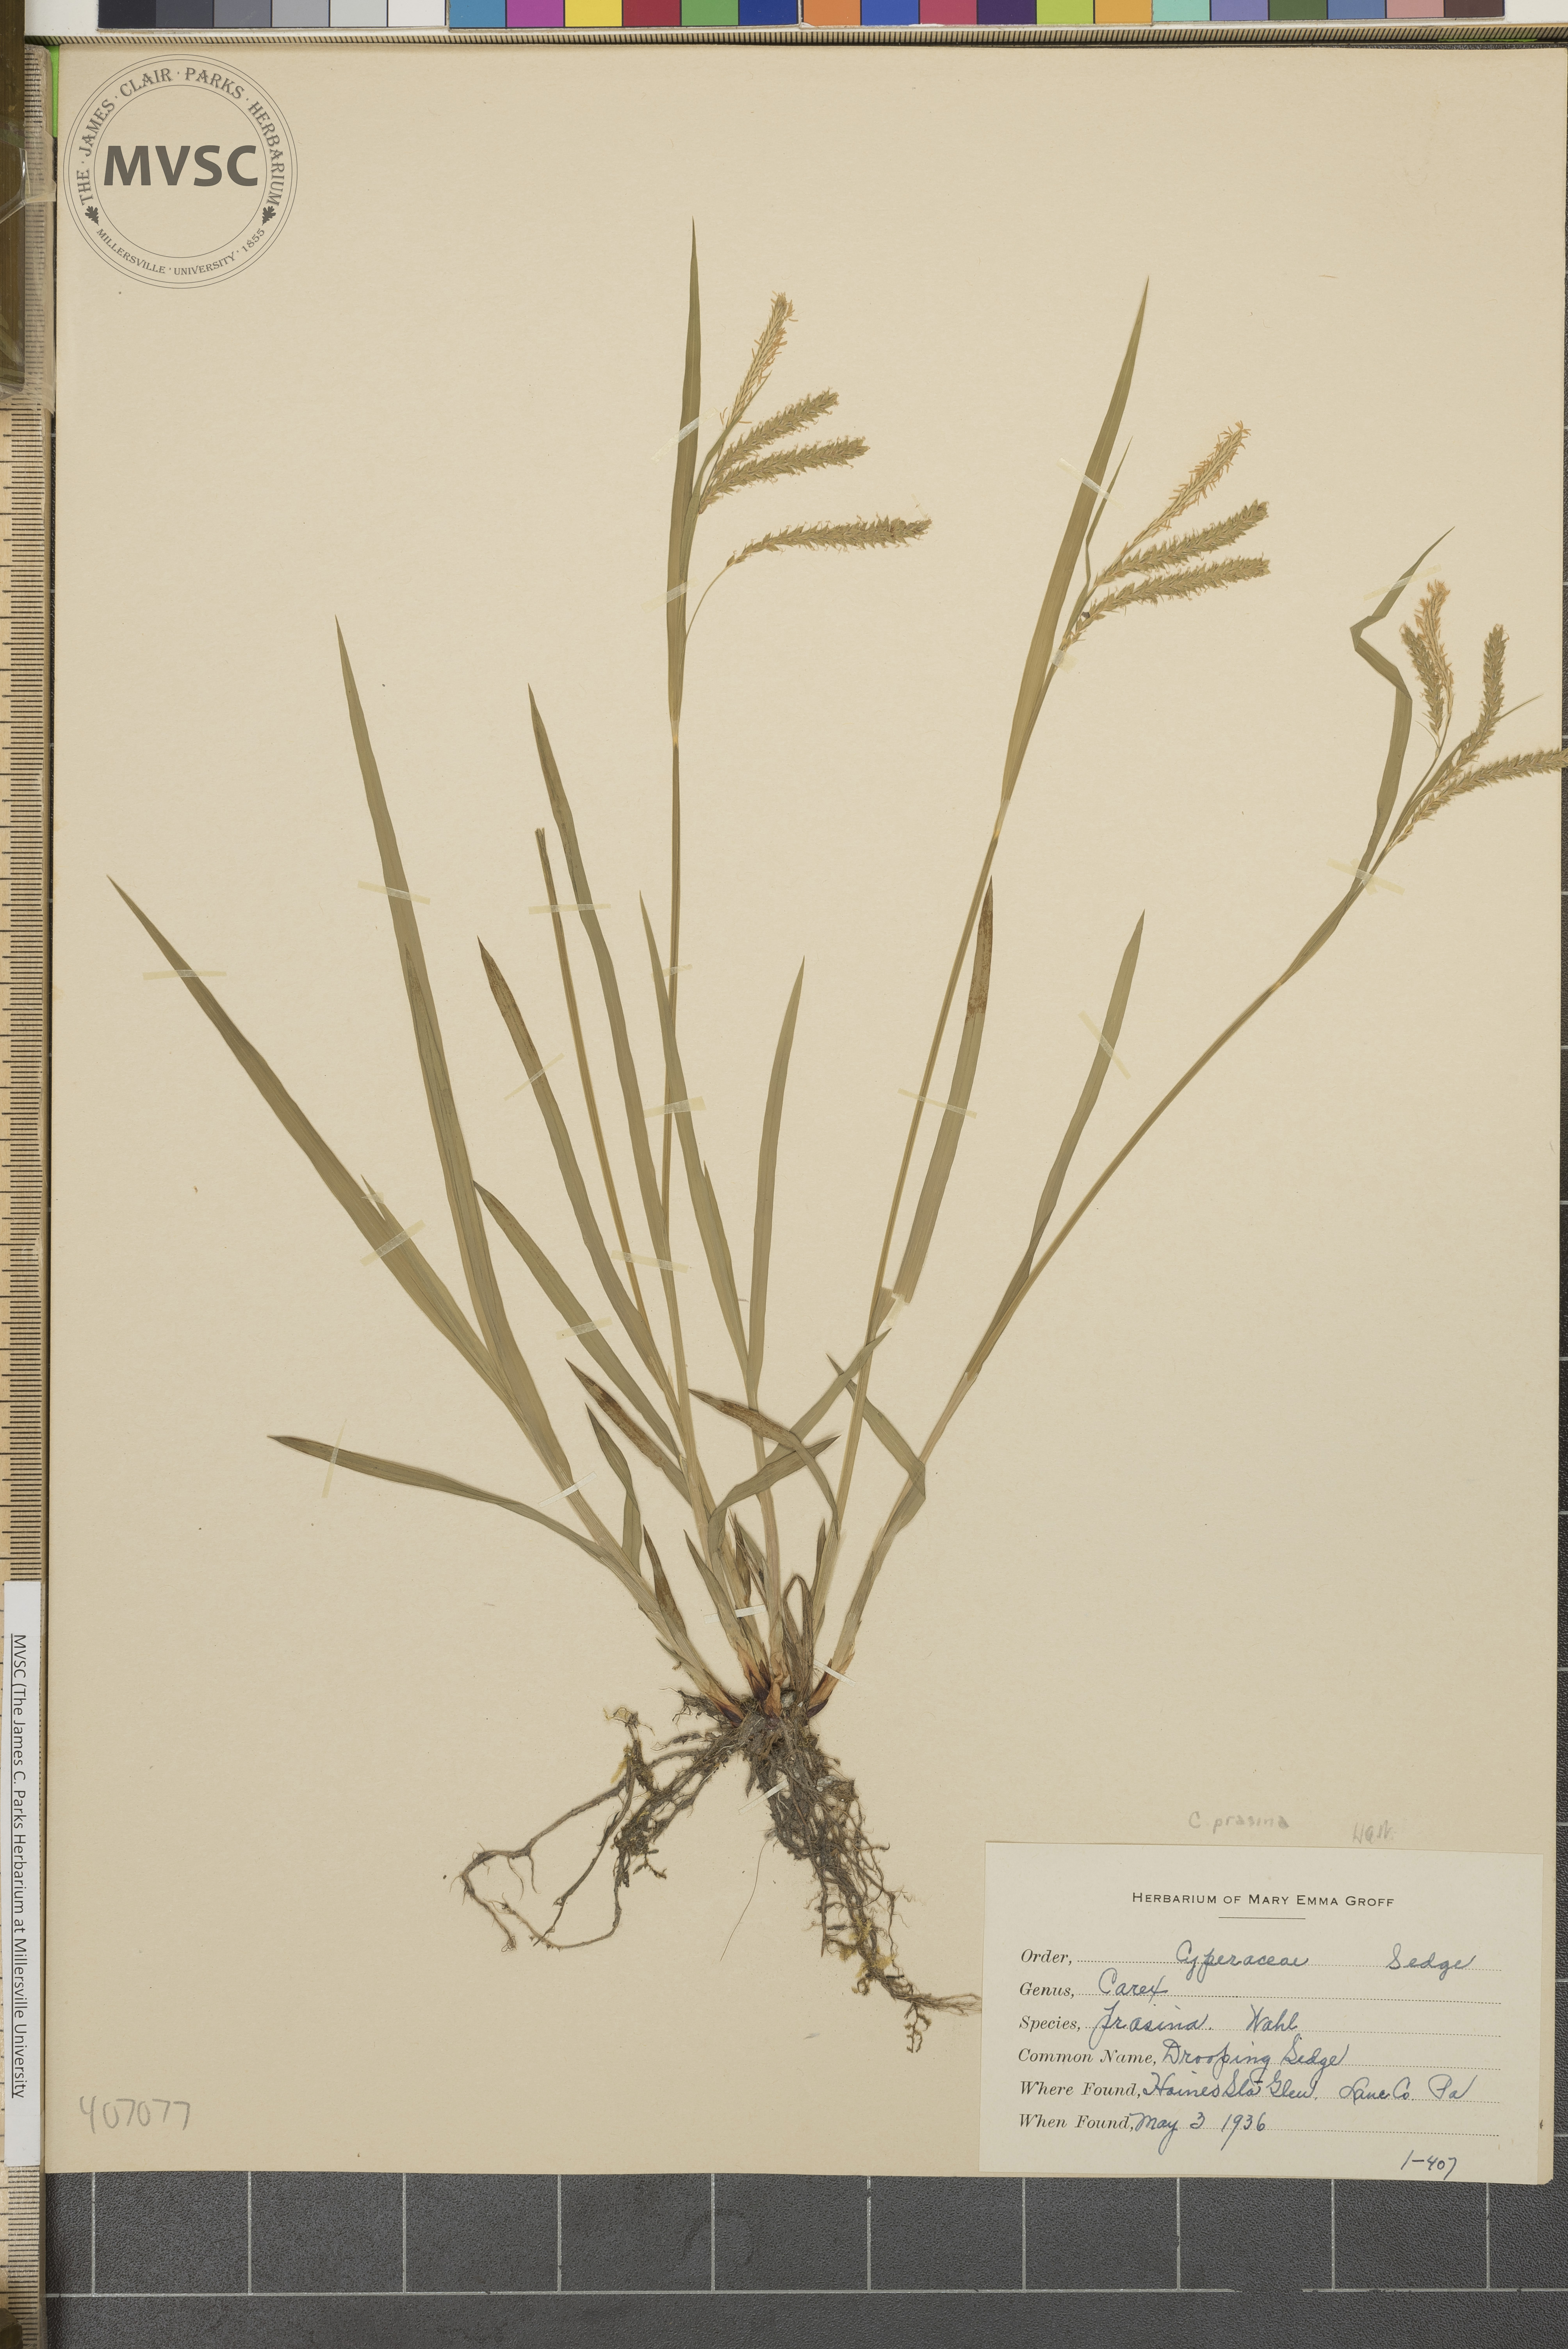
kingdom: Plantae
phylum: Tracheophyta
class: Liliopsida
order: Poales
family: Cyperaceae
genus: Carex
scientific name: Carex prasina
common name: Drooping Sedge
